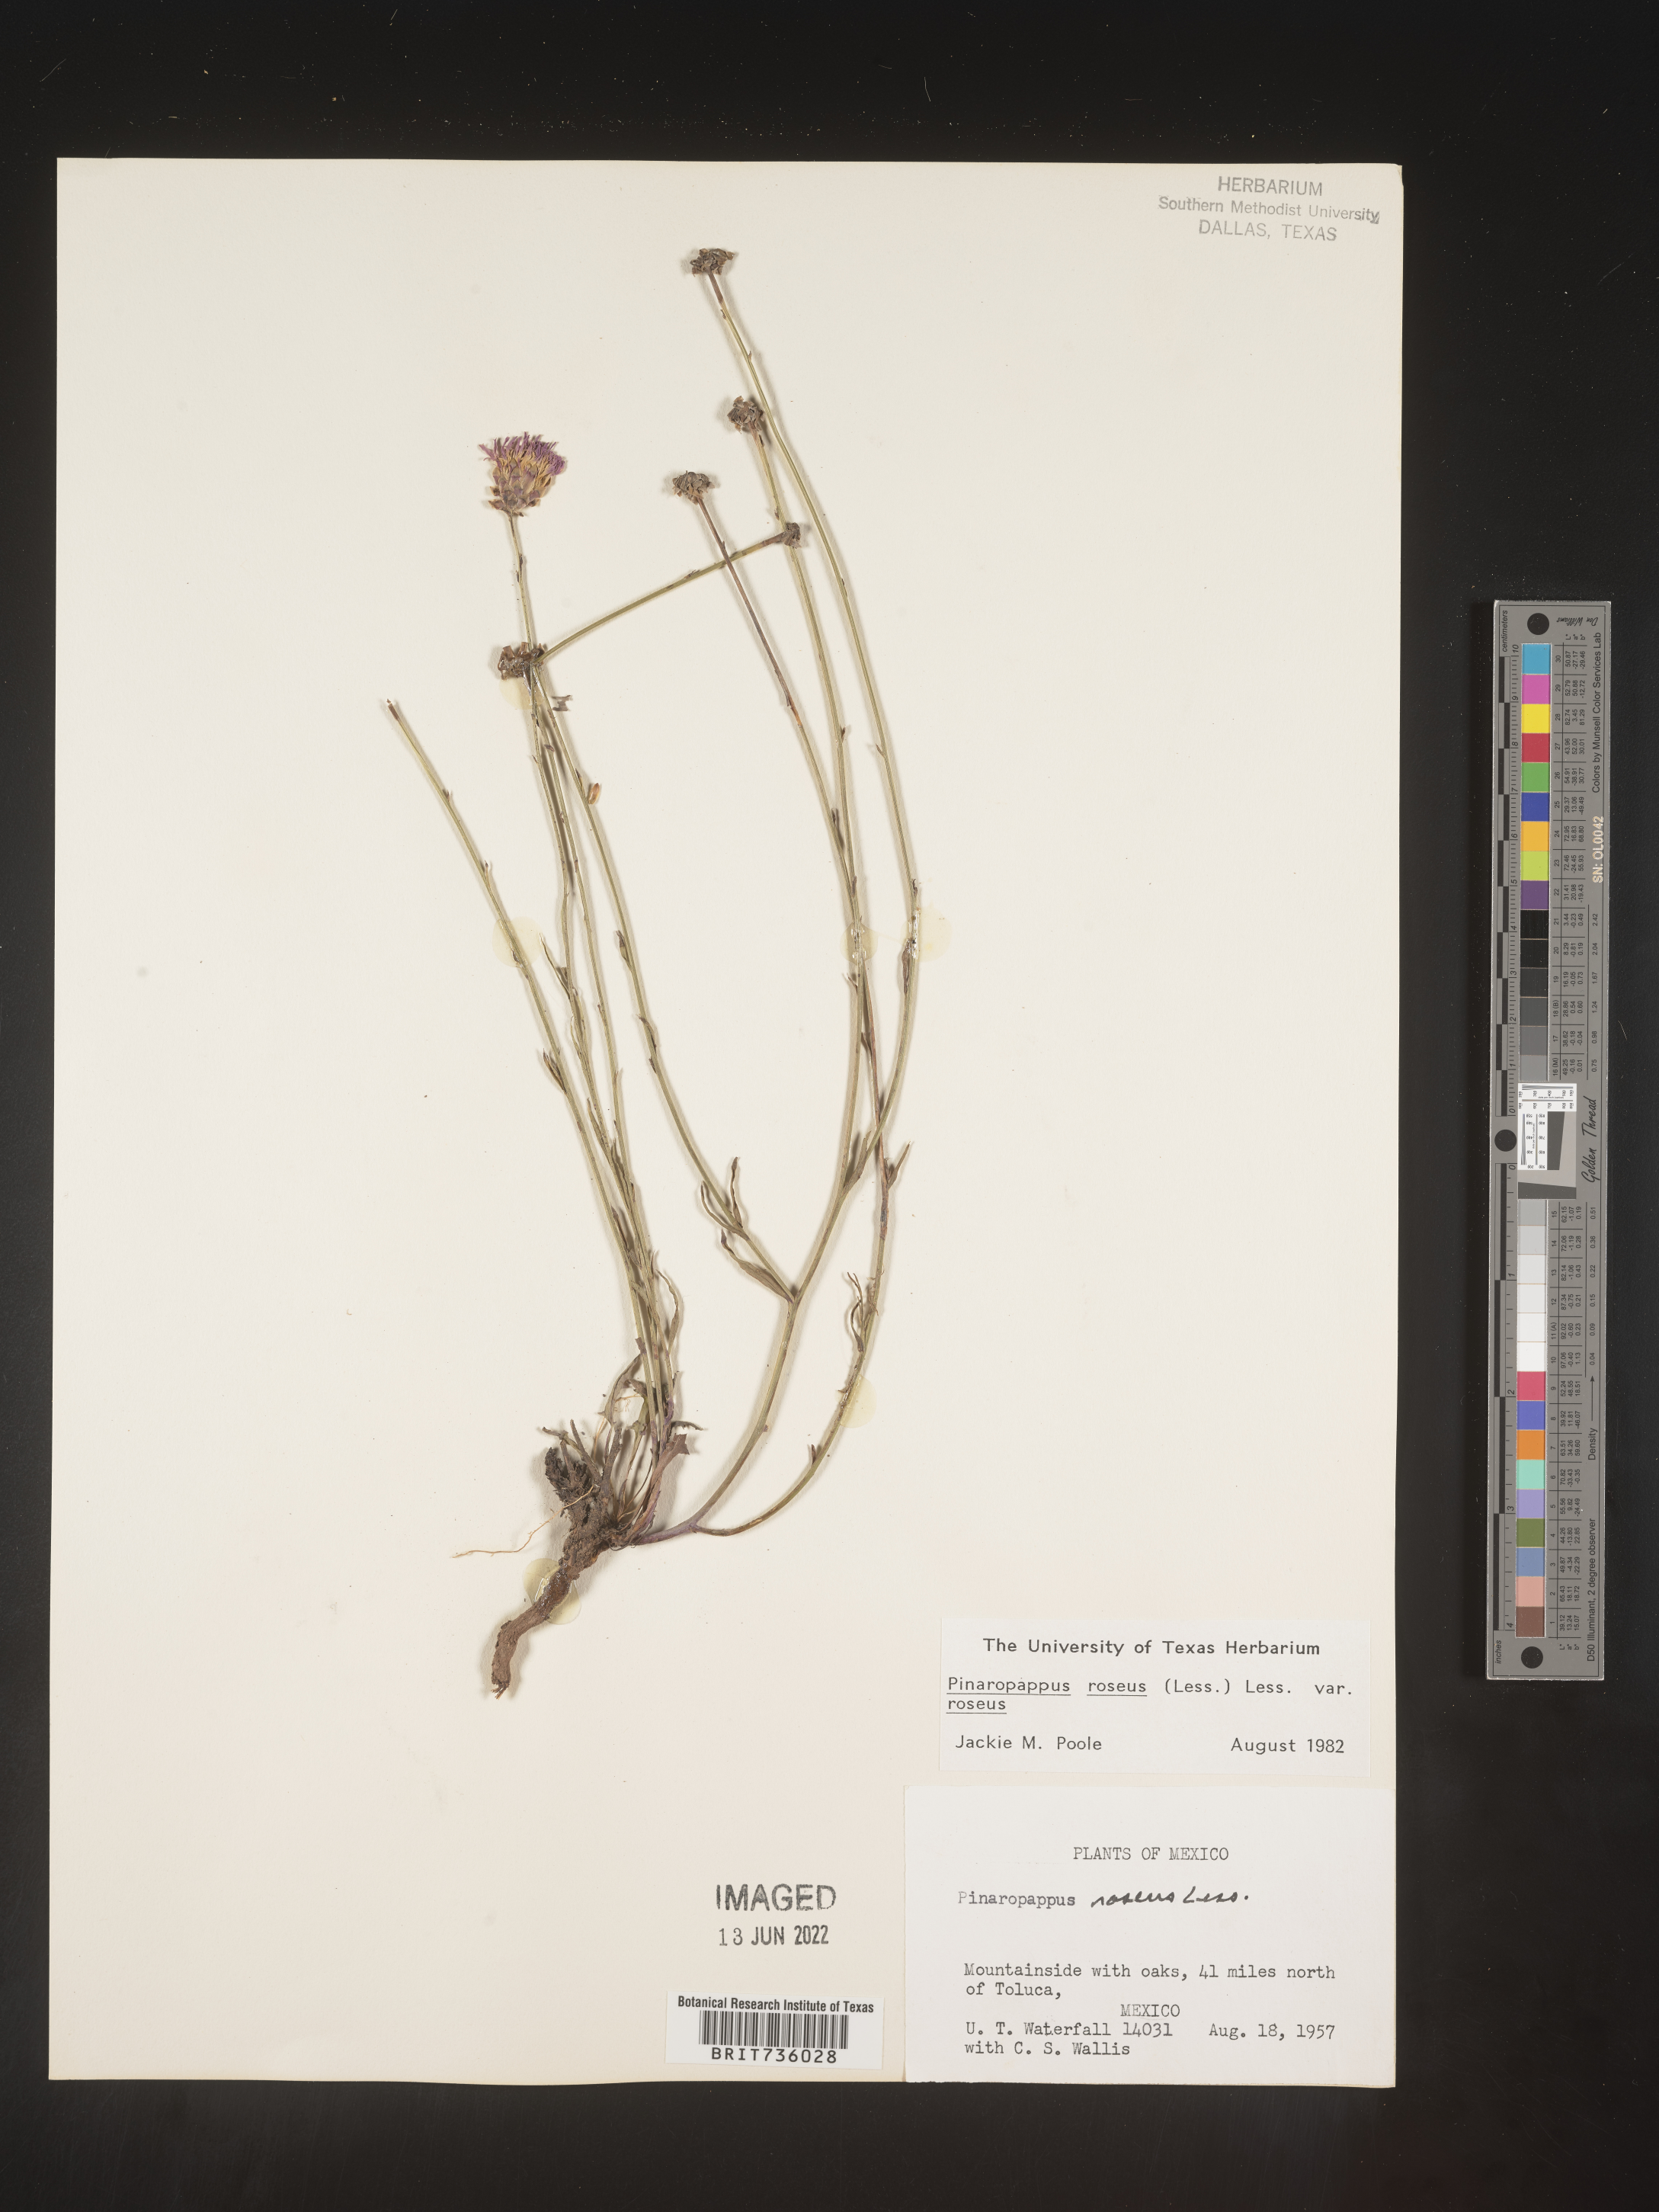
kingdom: Plantae
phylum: Tracheophyta
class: Magnoliopsida
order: Asterales
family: Asteraceae
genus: Pinaropappus
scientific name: Pinaropappus
